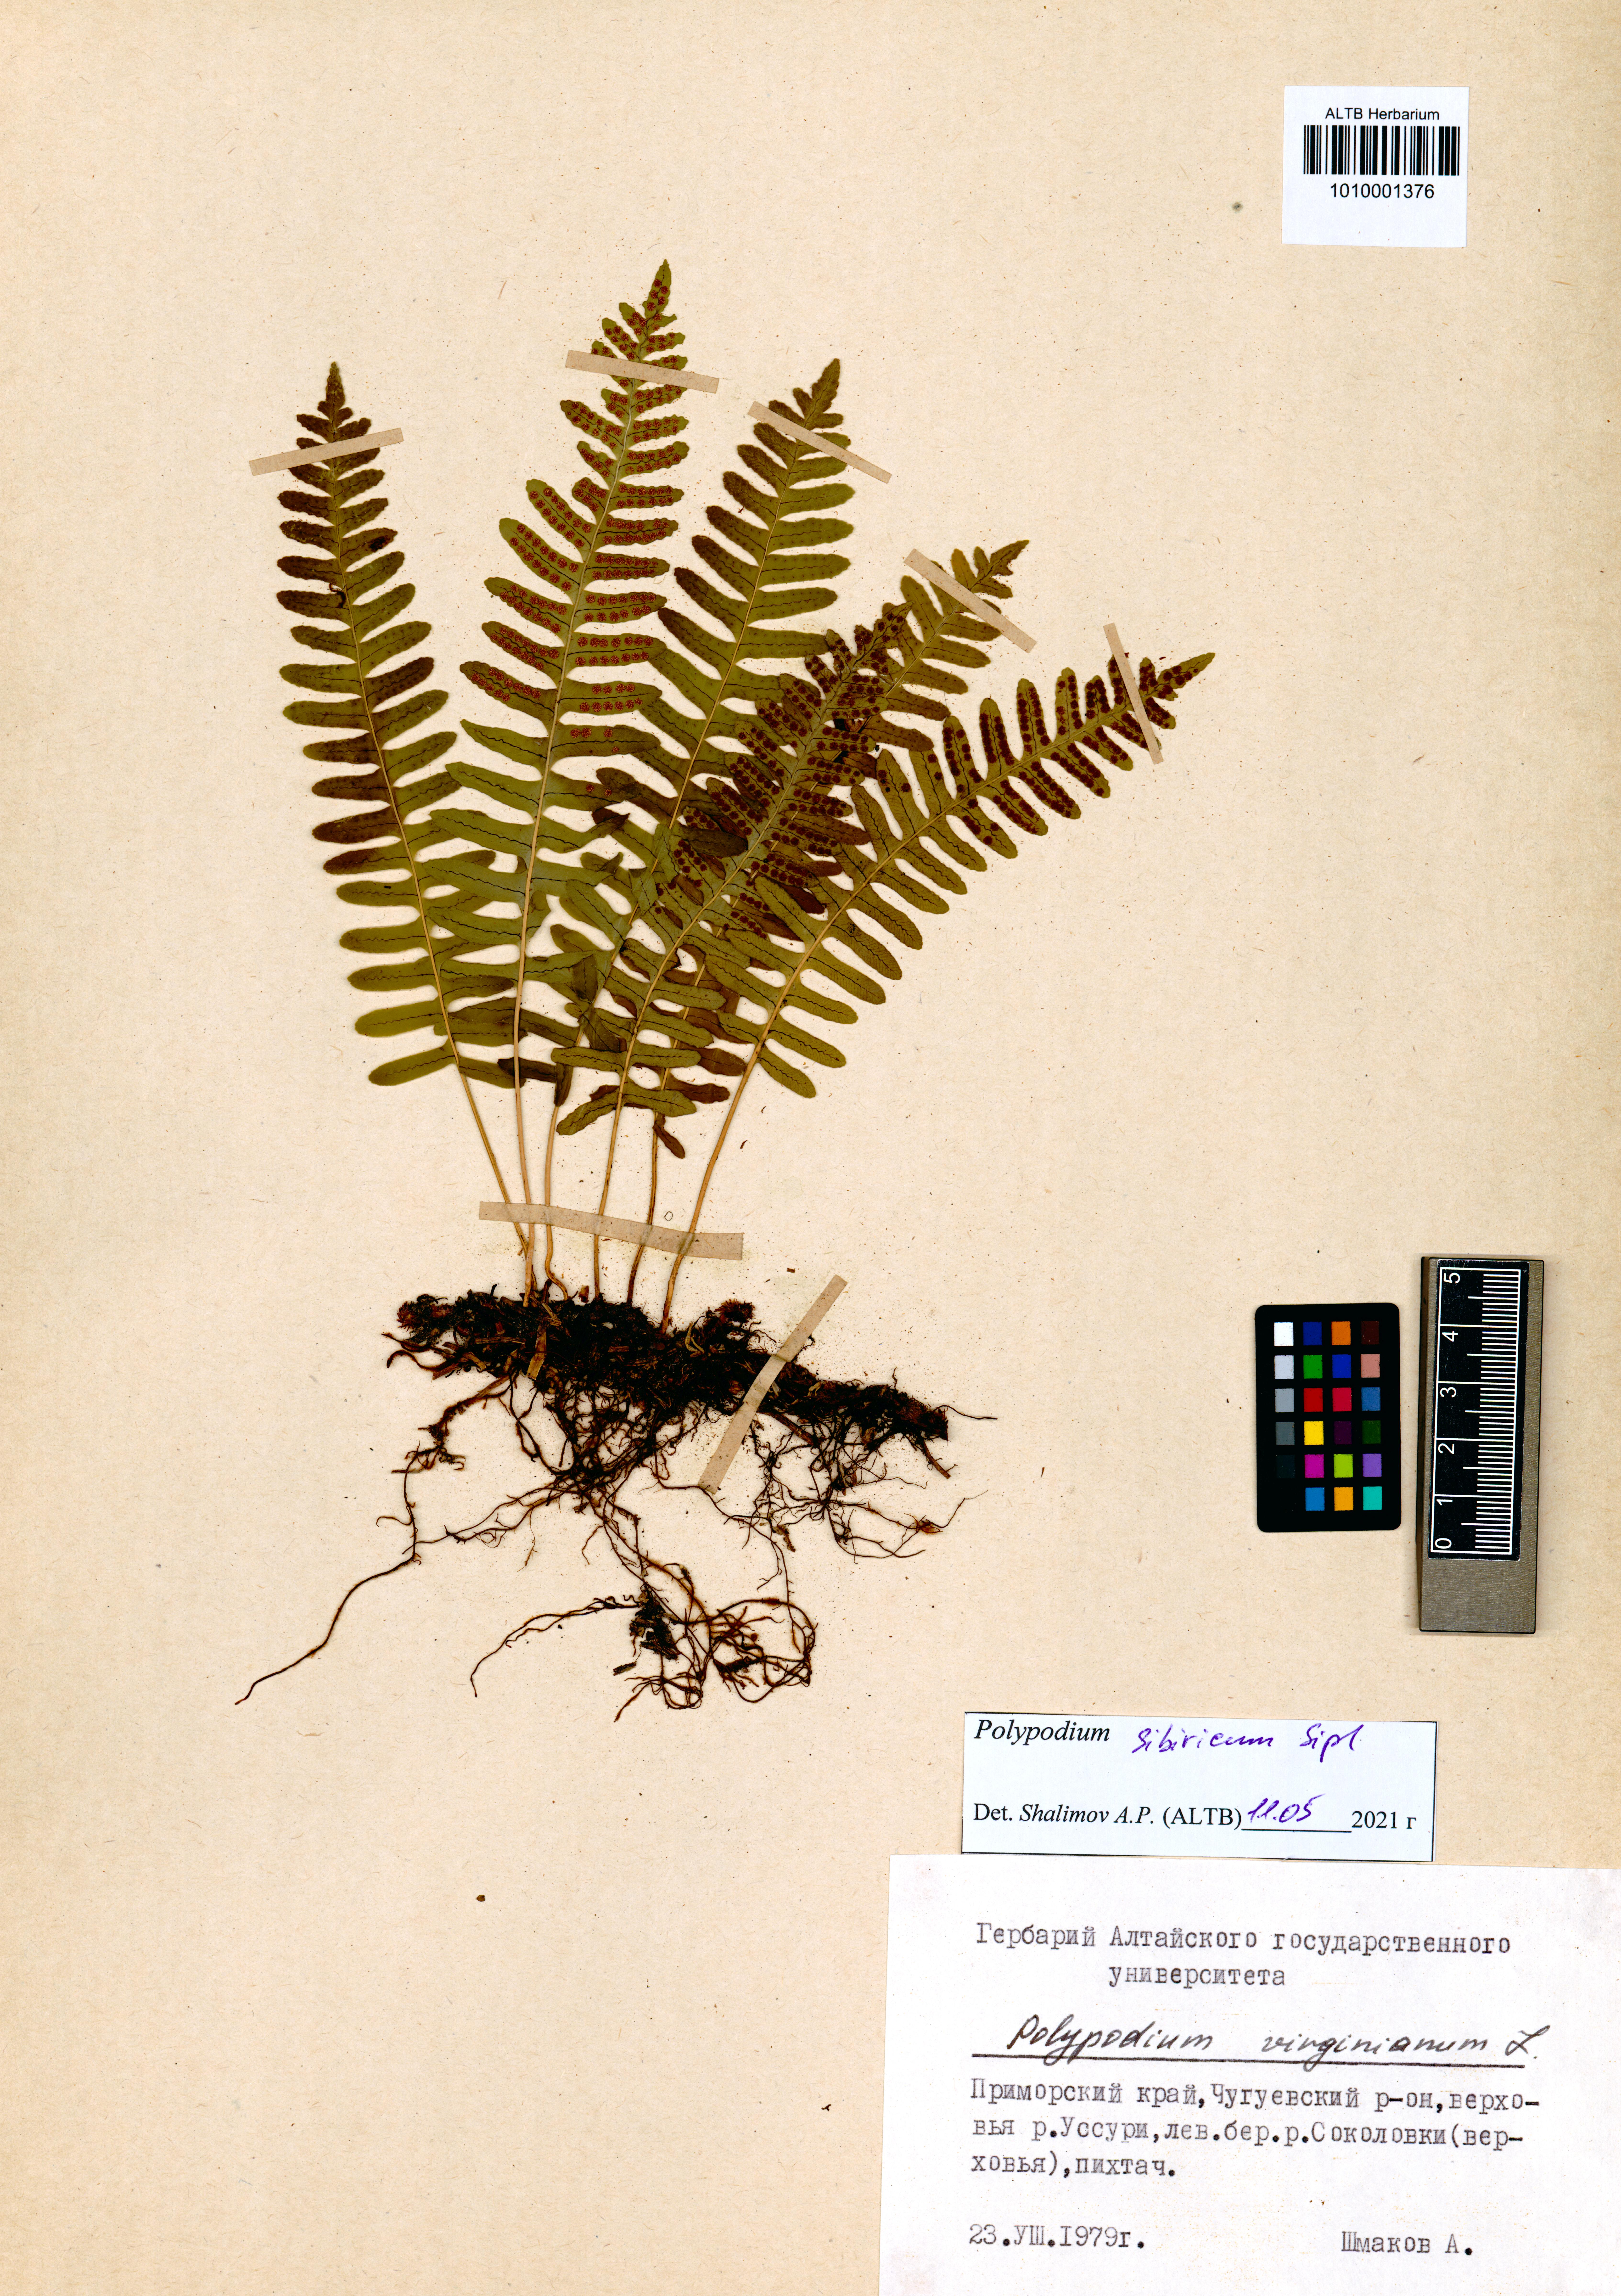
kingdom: Plantae
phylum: Tracheophyta
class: Polypodiopsida
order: Polypodiales
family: Polypodiaceae
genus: Polypodium
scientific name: Polypodium sibiricum
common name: Siberian polypody
